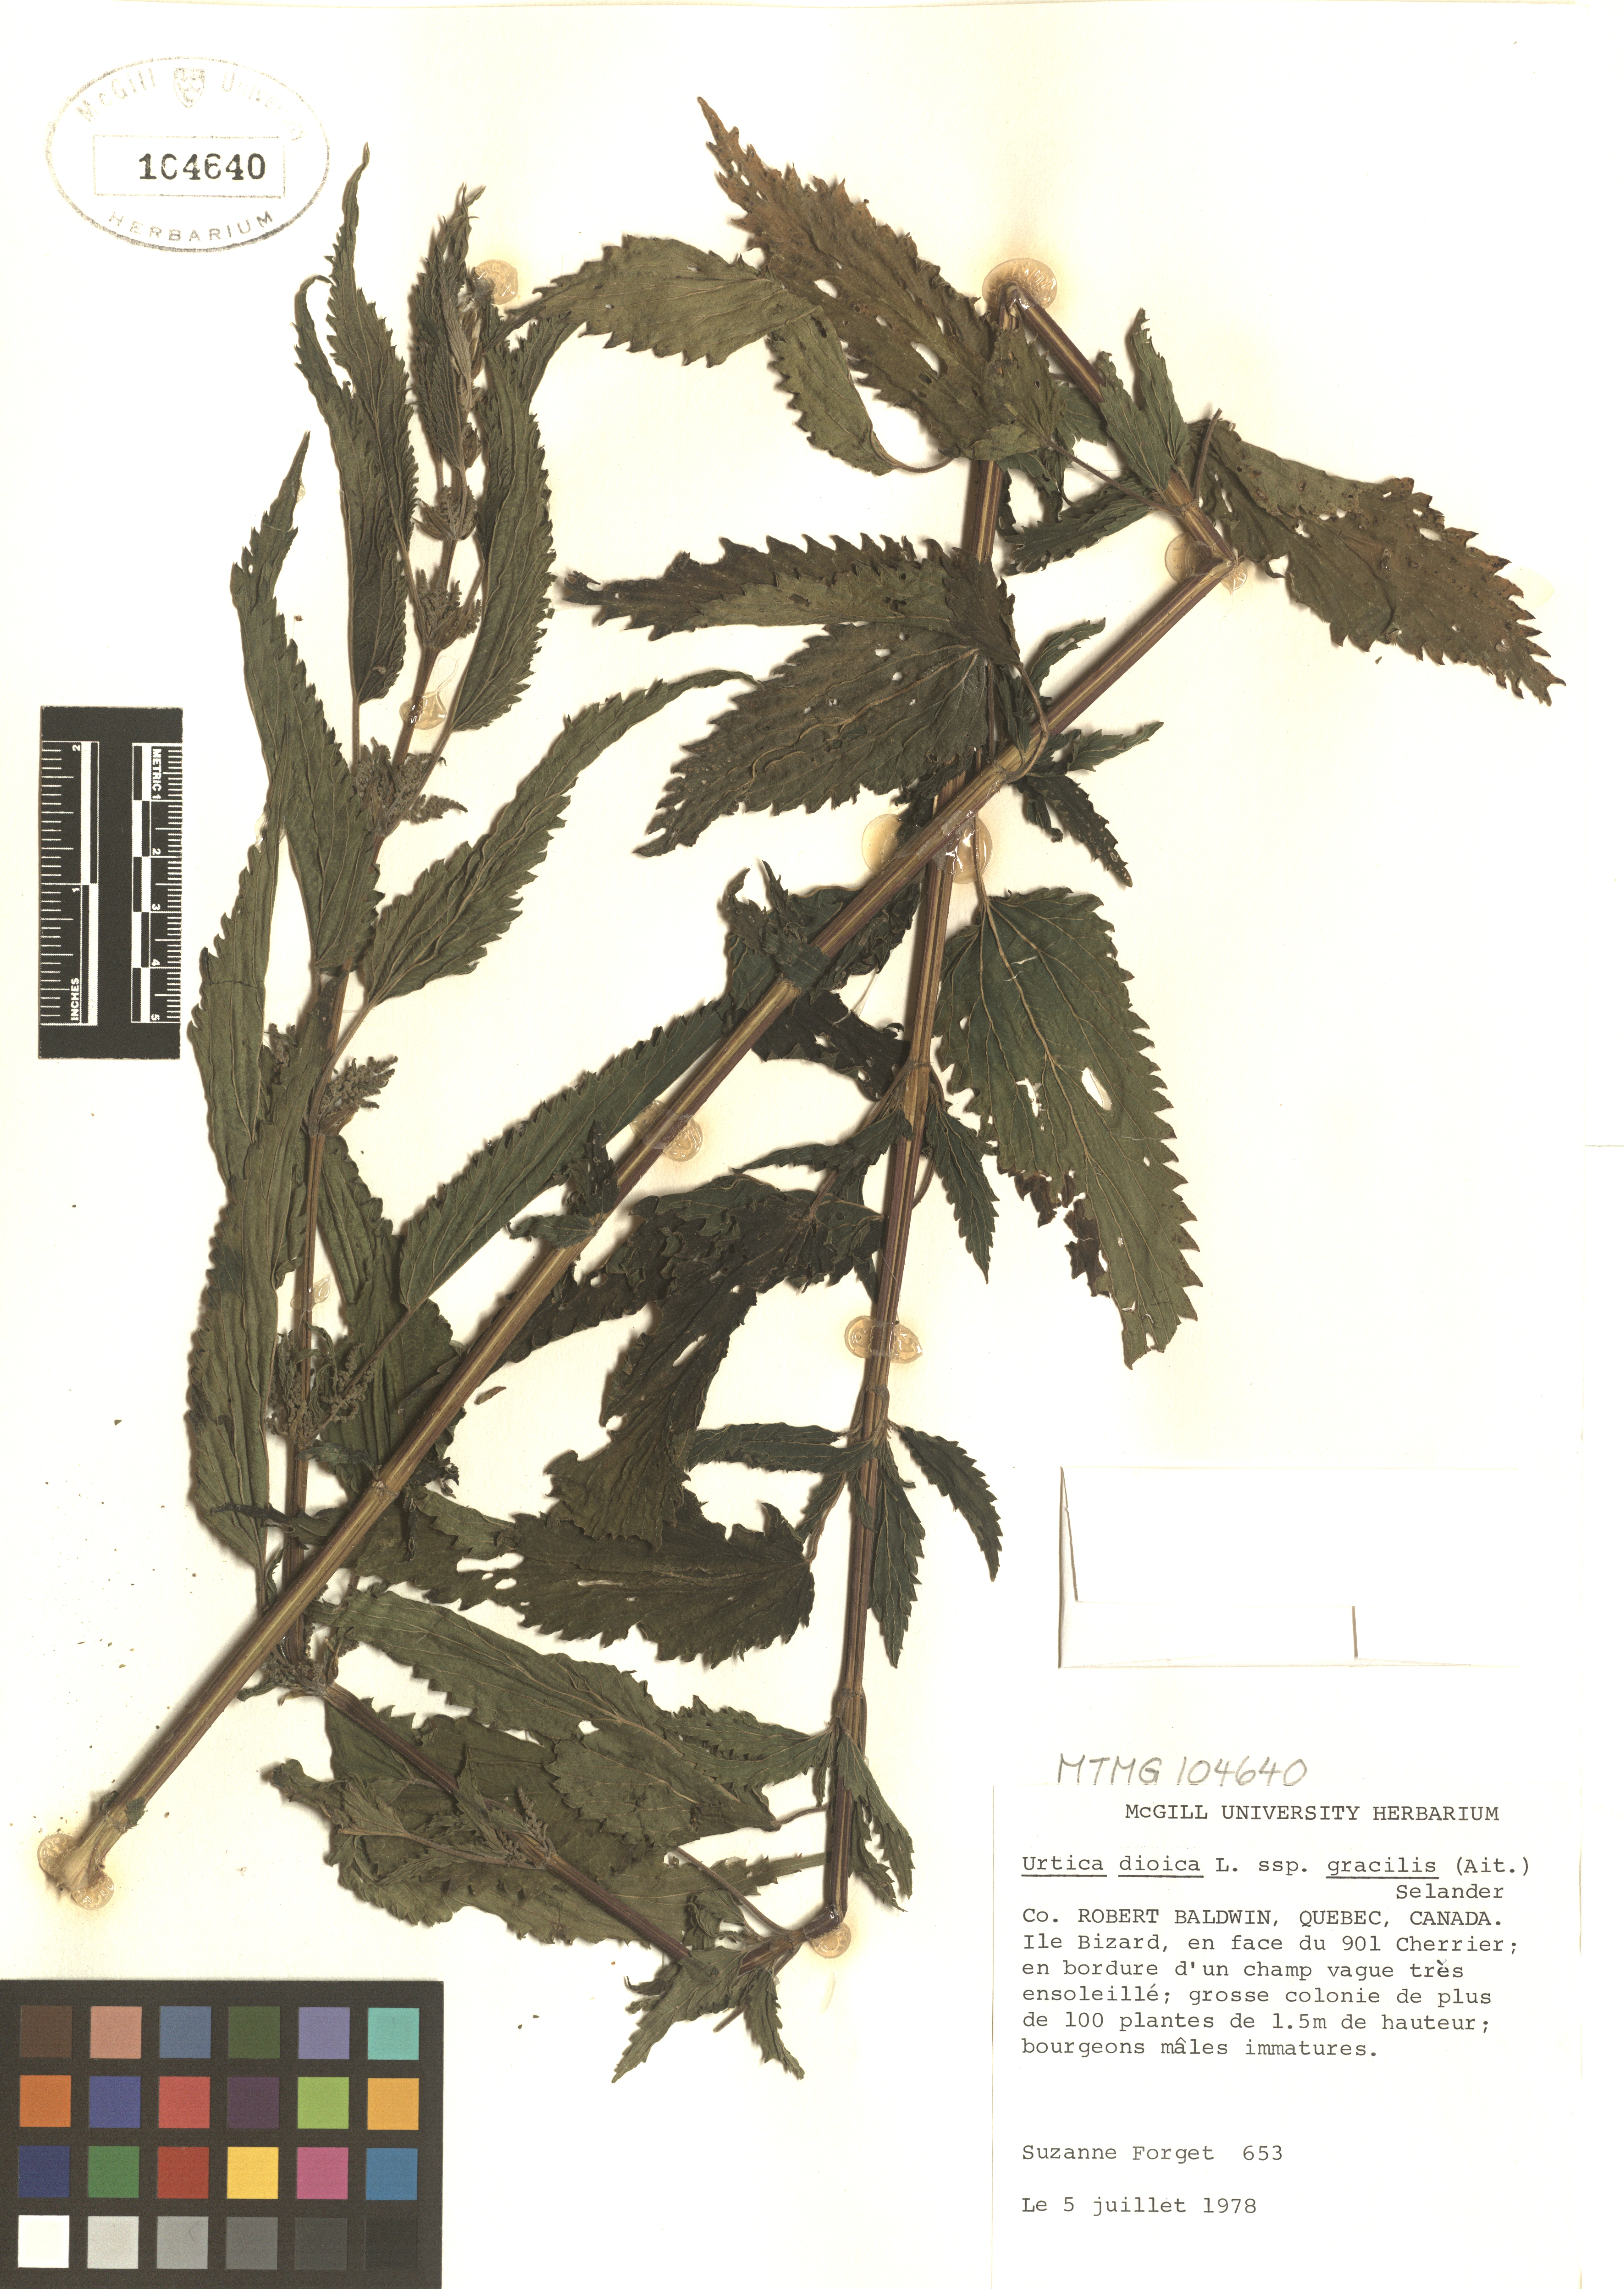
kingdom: Plantae
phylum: Tracheophyta
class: Magnoliopsida
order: Rosales
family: Urticaceae
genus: Urtica
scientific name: Urtica gracilis
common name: Slender stinging nettle
